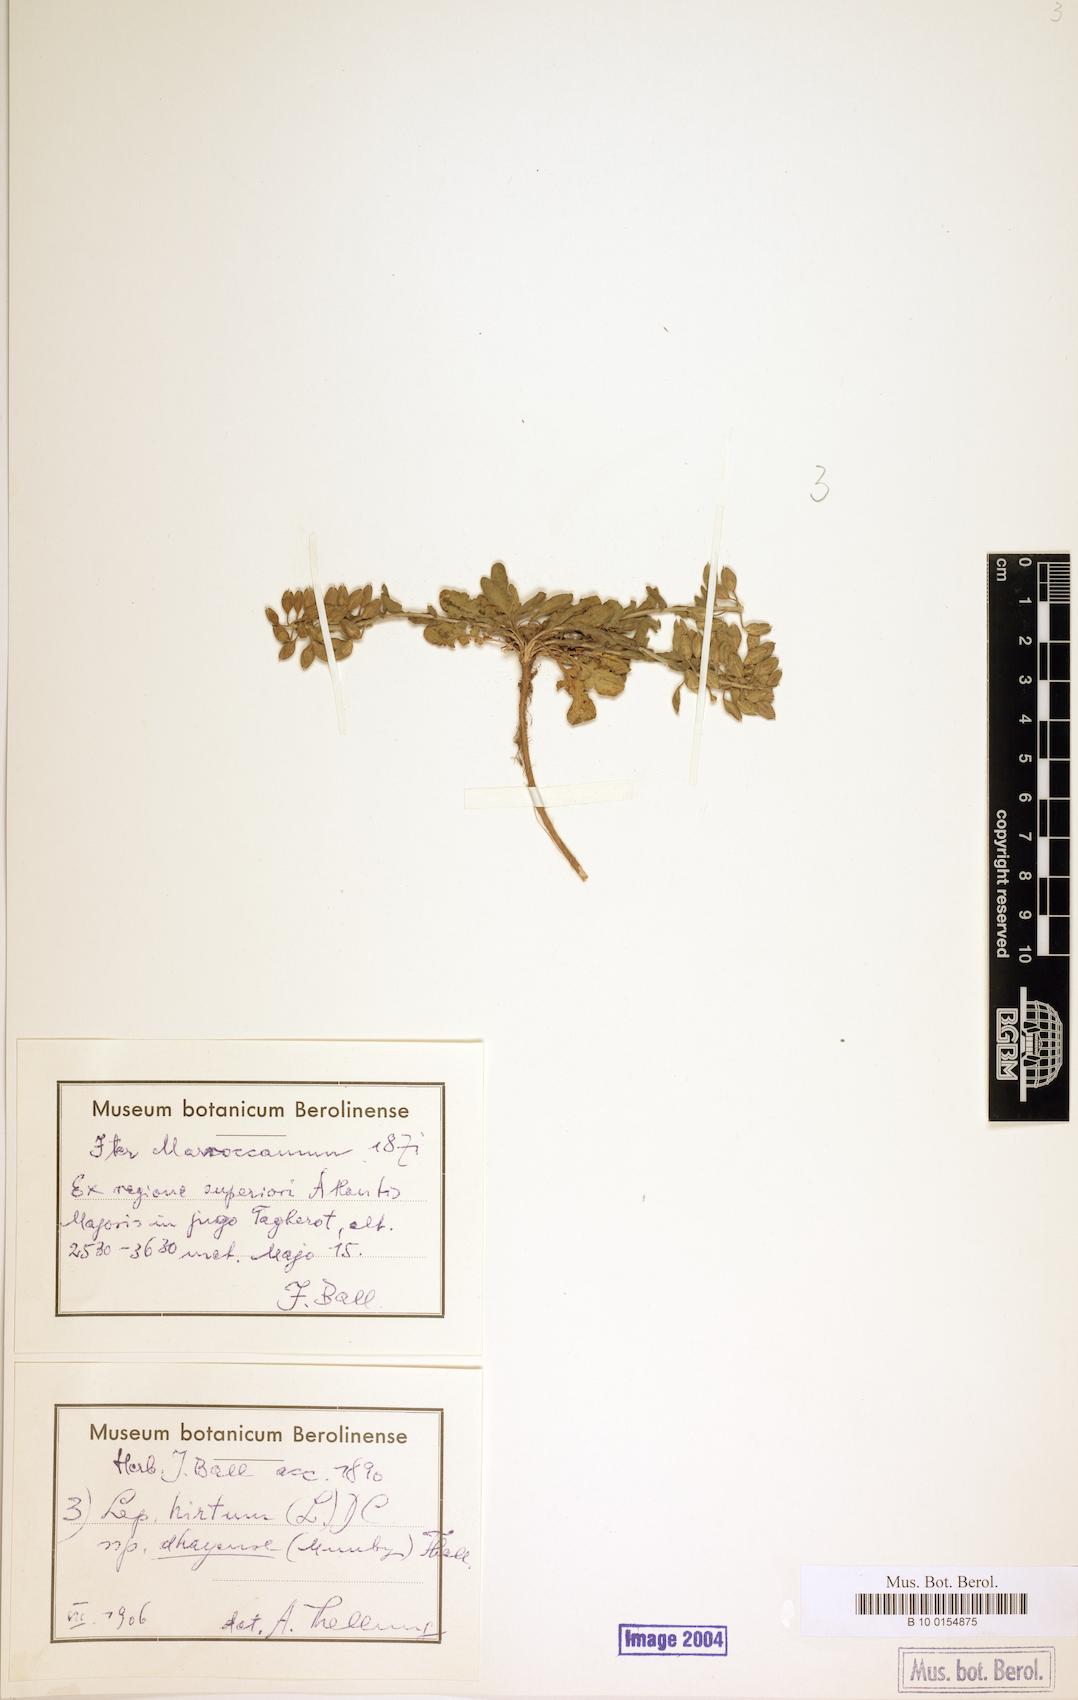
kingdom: Plantae
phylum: Tracheophyta
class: Magnoliopsida
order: Brassicales
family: Brassicaceae
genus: Lepidium
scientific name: Lepidium hirtum
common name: Mediterranean pepperweed
